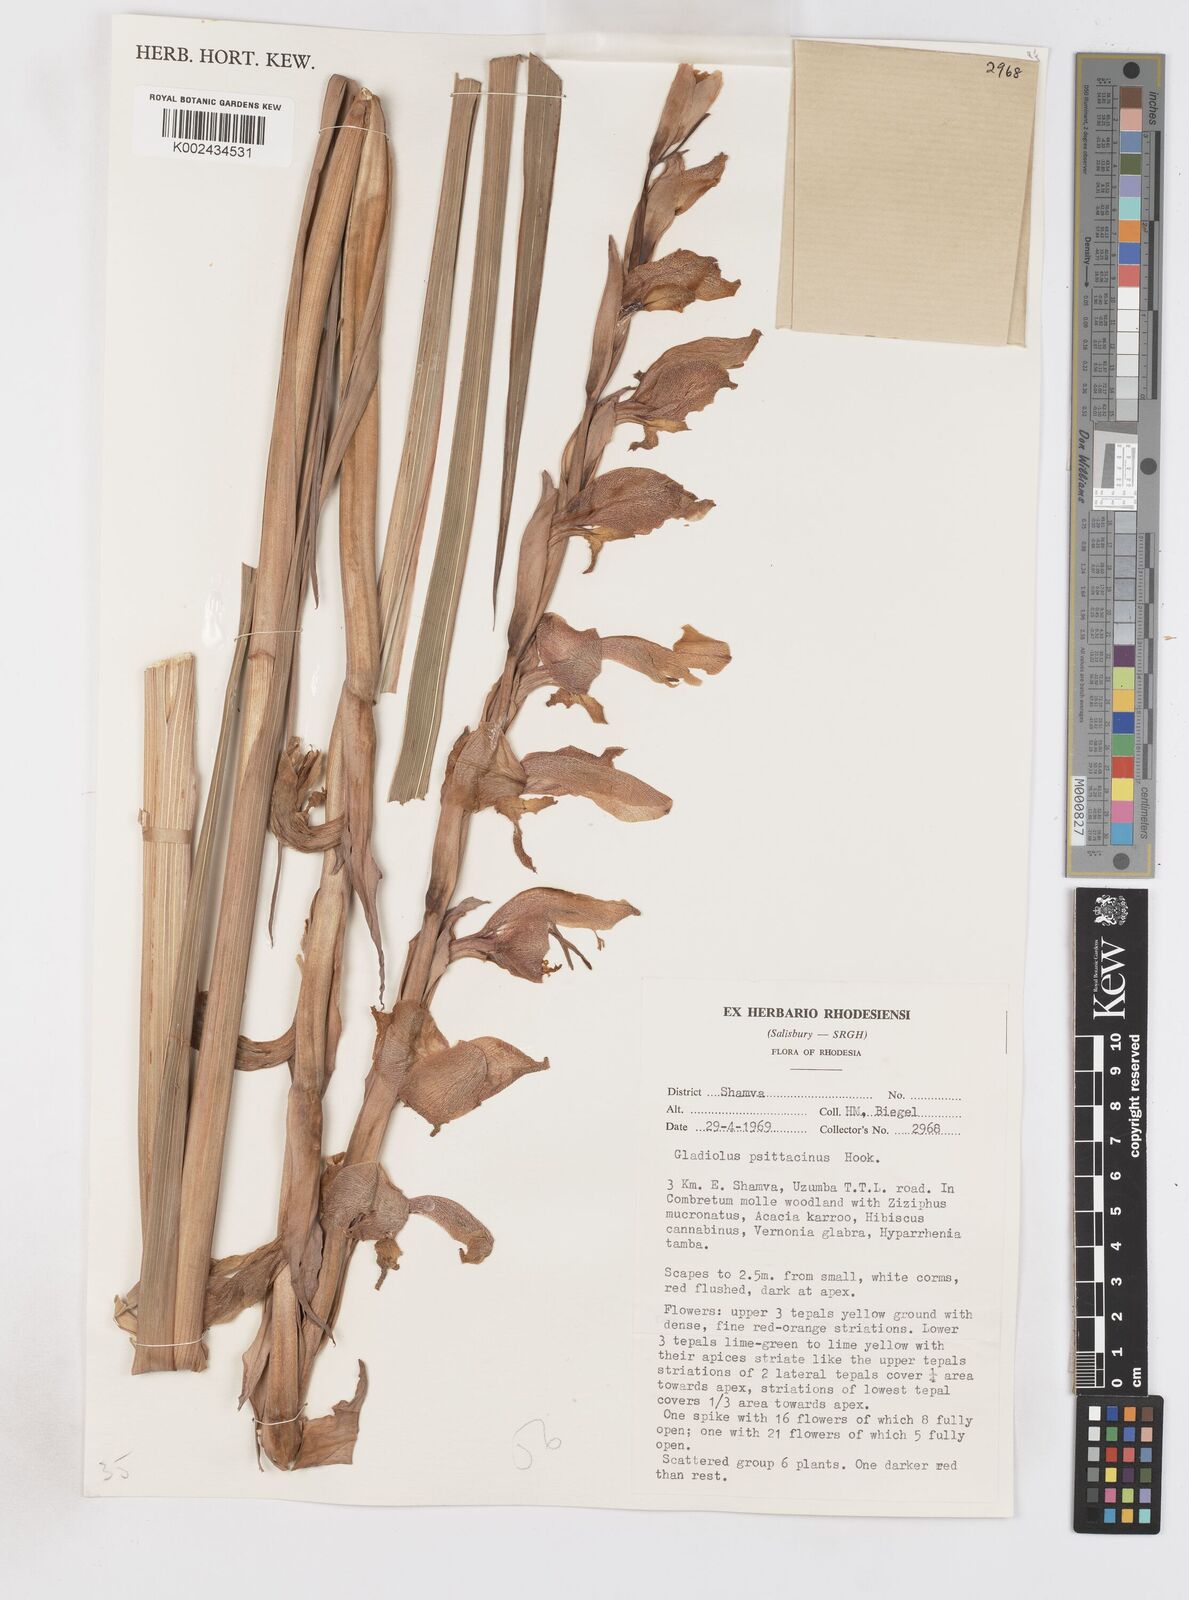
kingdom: Plantae
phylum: Tracheophyta
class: Liliopsida
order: Asparagales
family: Iridaceae
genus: Gladiolus
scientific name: Gladiolus dalenii
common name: Cornflag
